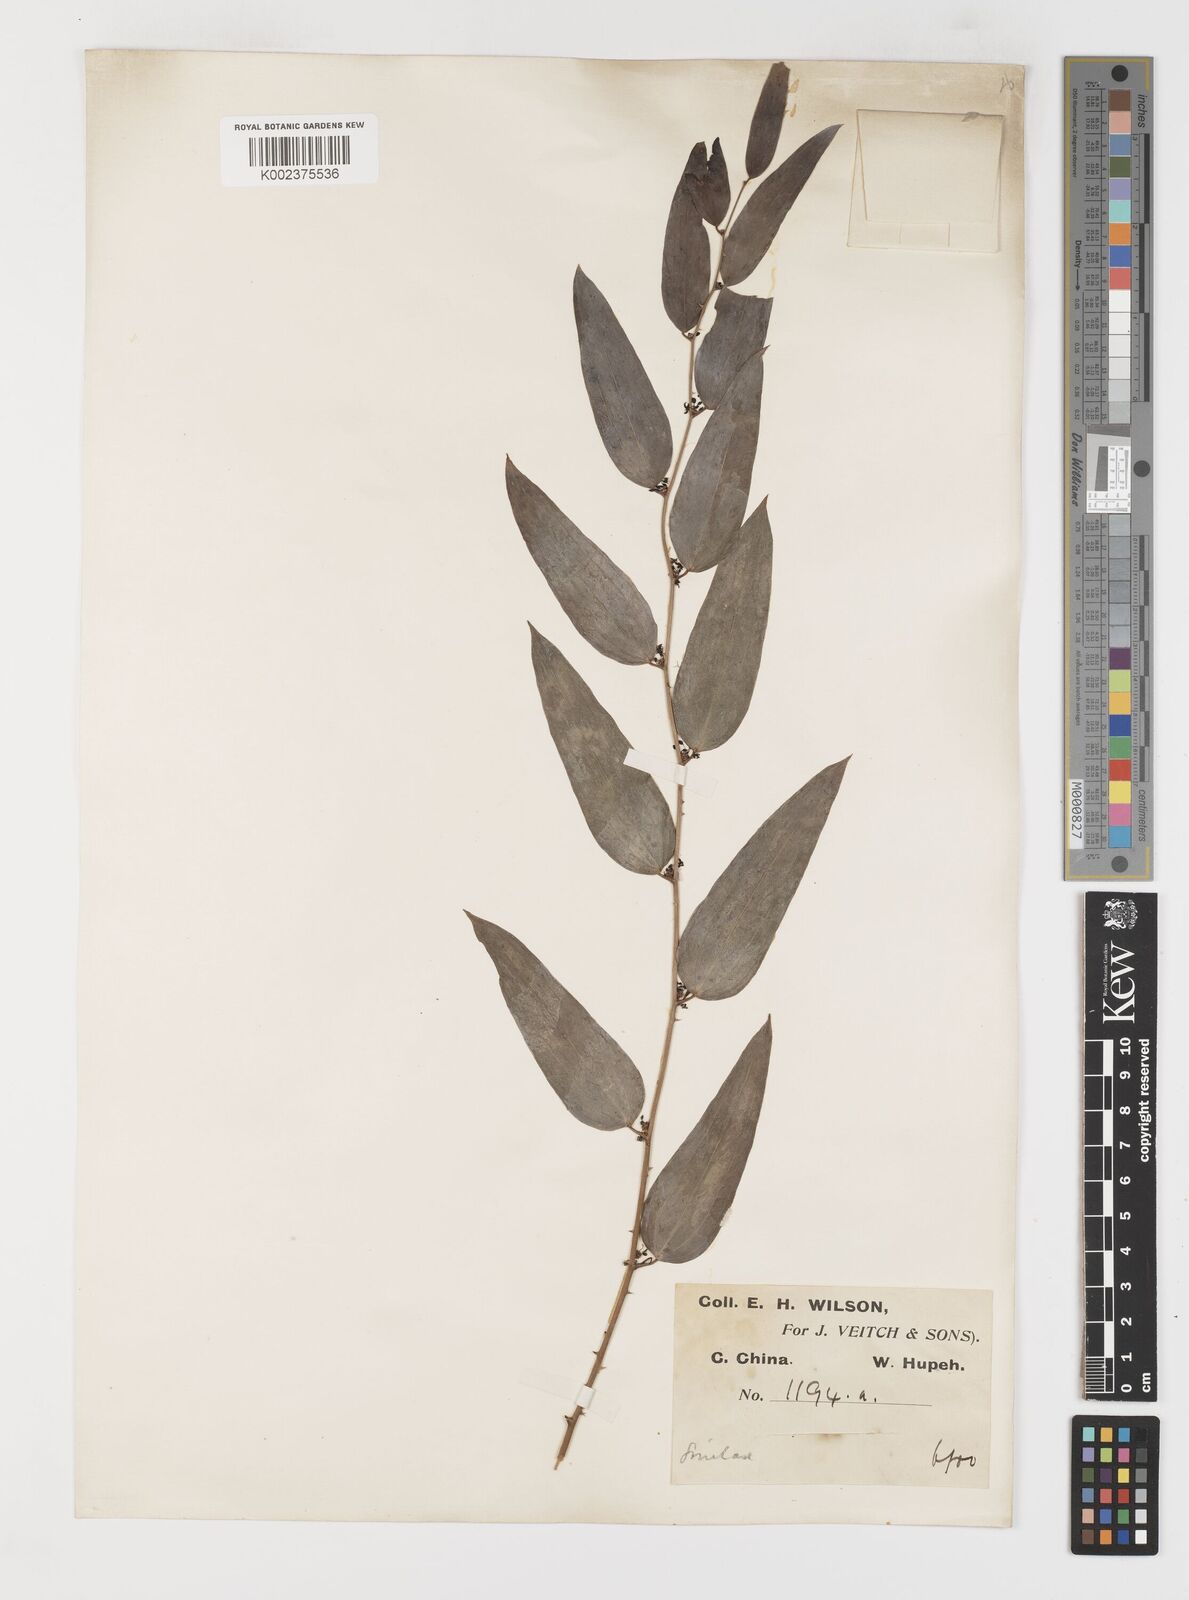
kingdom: Plantae
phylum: Tracheophyta
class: Liliopsida
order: Liliales
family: Smilacaceae
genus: Smilax
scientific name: Smilax microphylla
